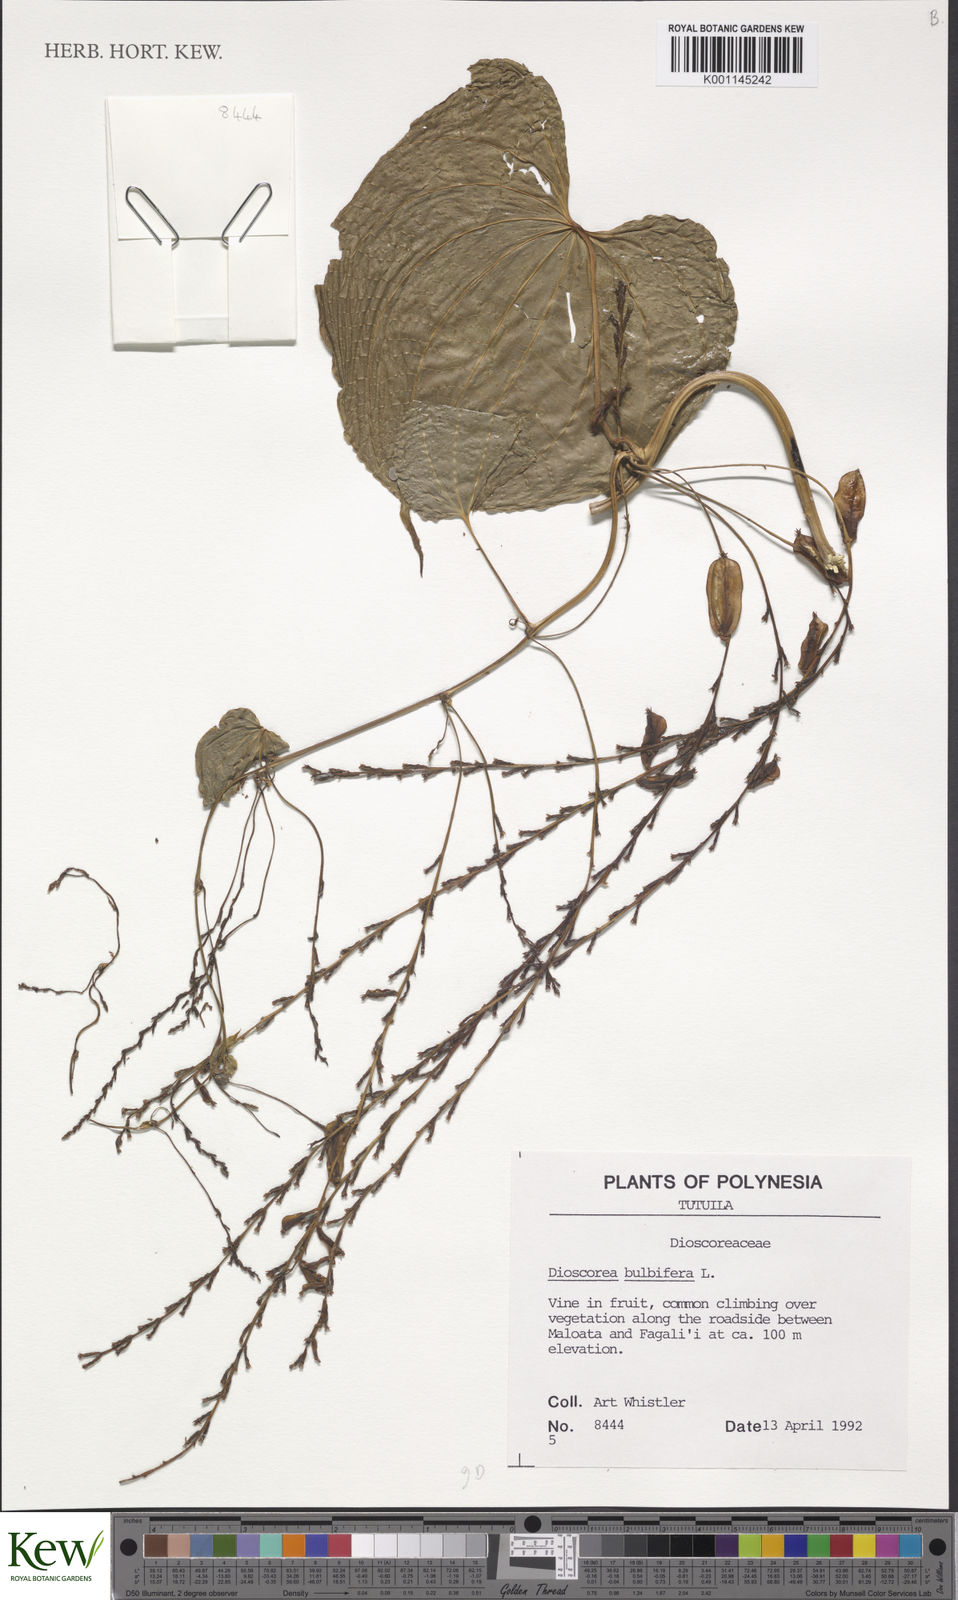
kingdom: Plantae
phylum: Tracheophyta
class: Liliopsida
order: Dioscoreales
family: Dioscoreaceae
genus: Dioscorea
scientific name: Dioscorea bulbifera
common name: Air yam
